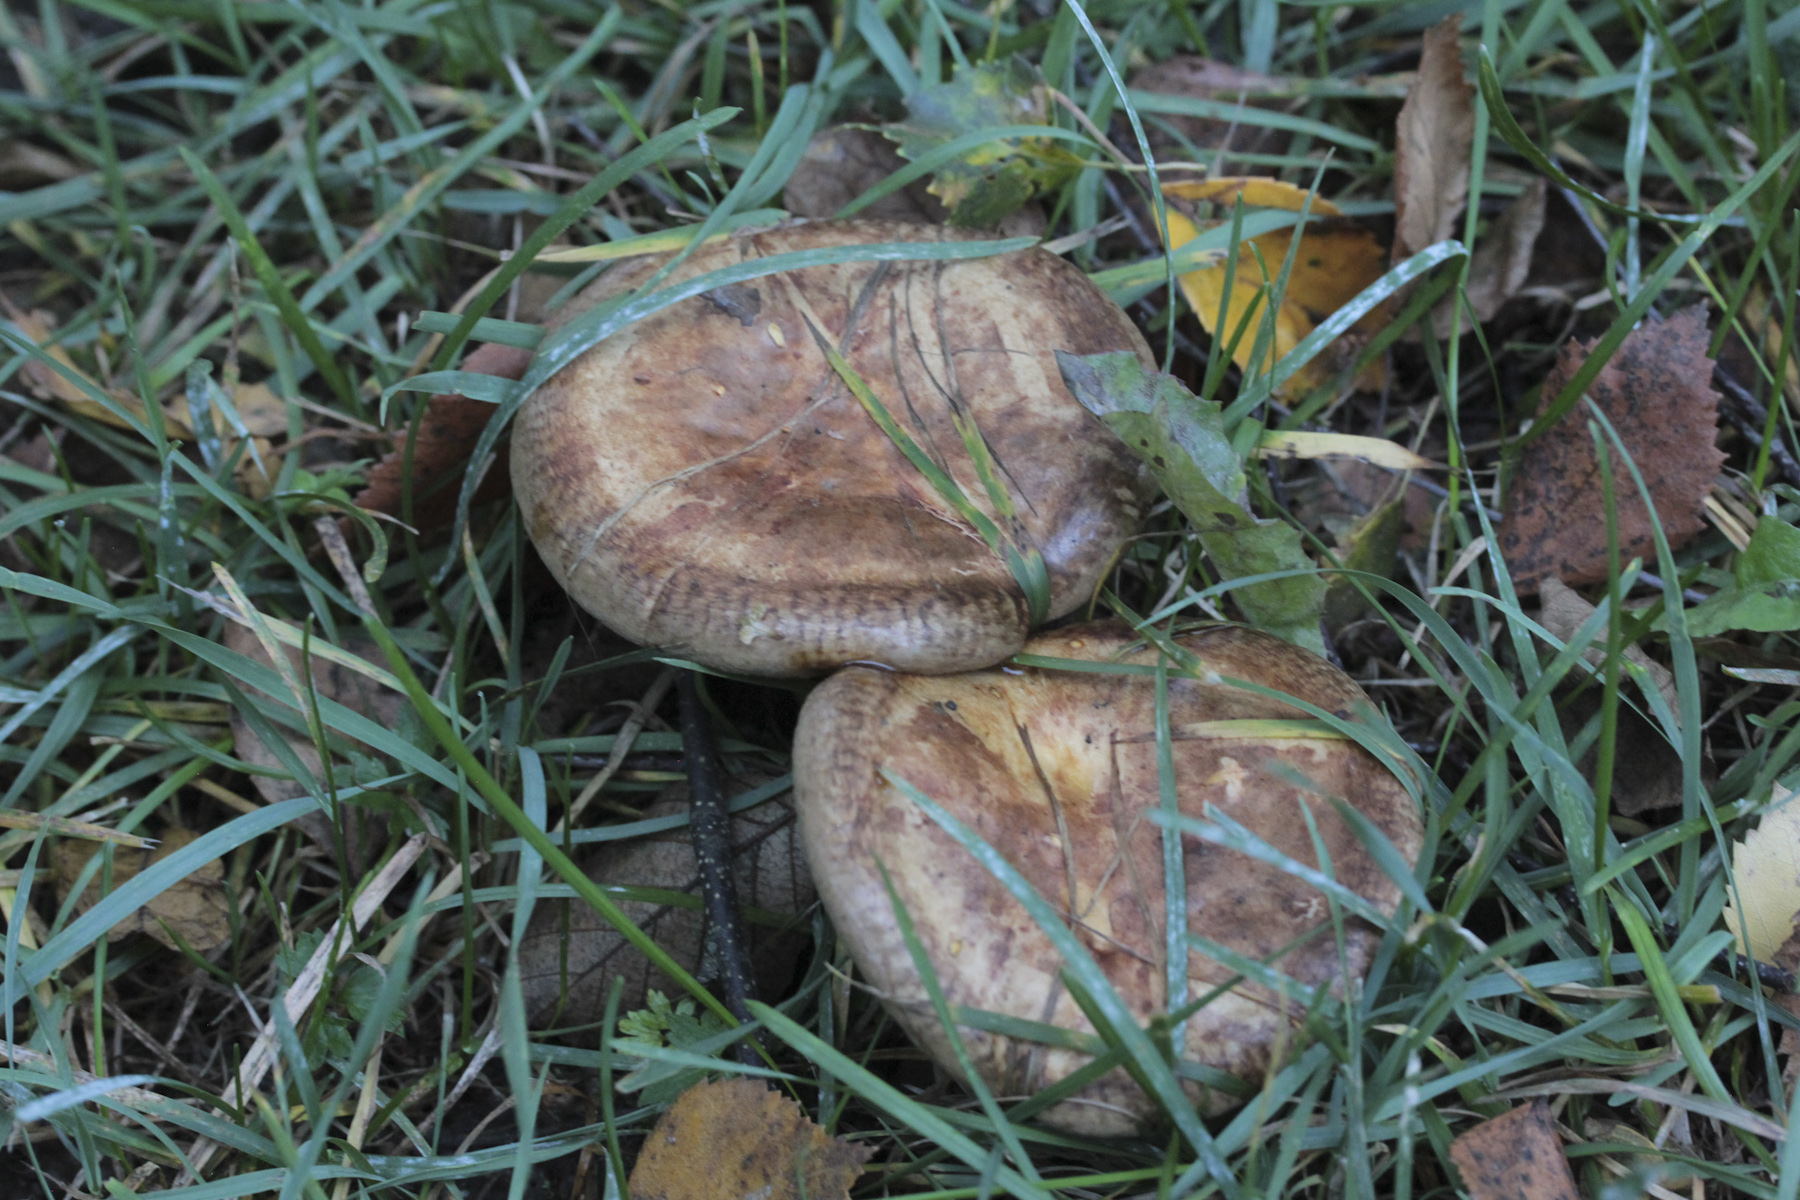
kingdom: Fungi
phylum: Basidiomycota
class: Agaricomycetes
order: Boletales
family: Paxillaceae
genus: Paxillus
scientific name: Paxillus
